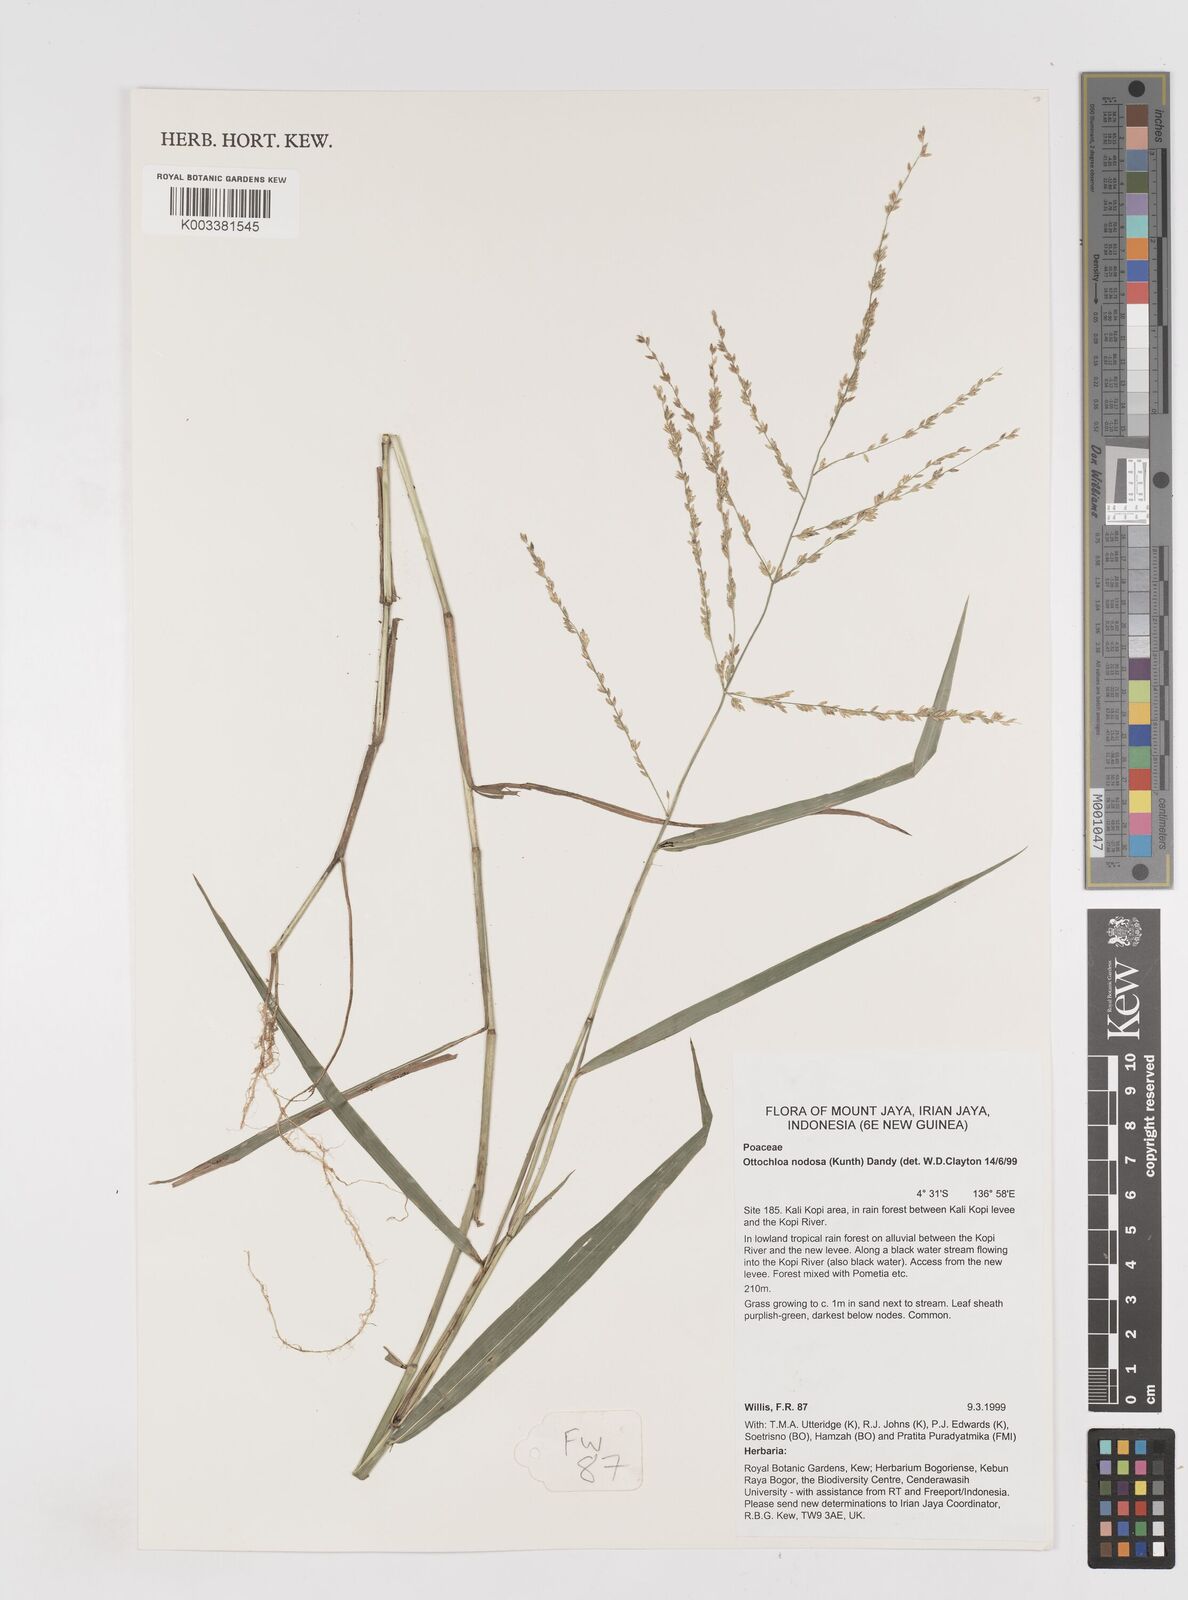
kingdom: Plantae
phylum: Tracheophyta
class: Liliopsida
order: Poales
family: Poaceae
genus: Ottochloa
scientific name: Ottochloa nodosa
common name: Slender-panic grass
